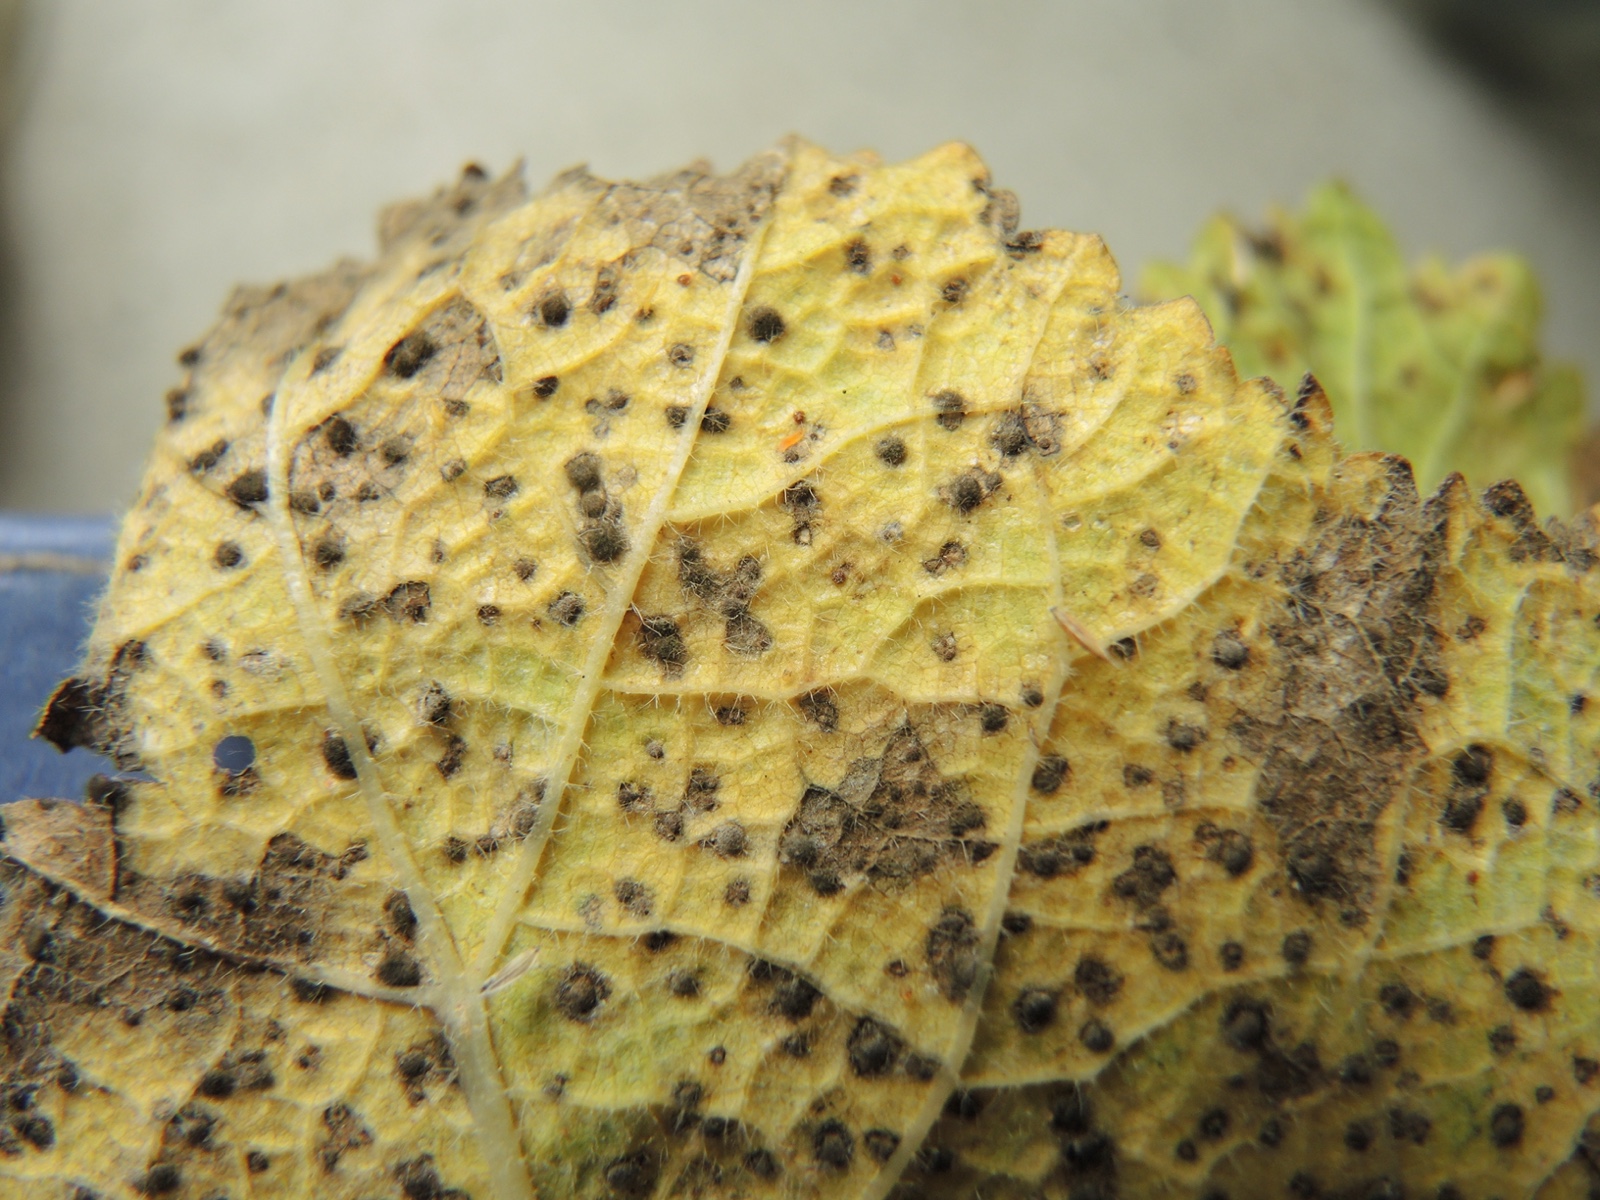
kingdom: Fungi
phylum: Basidiomycota
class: Pucciniomycetes
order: Pucciniales
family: Pucciniaceae
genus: Puccinia
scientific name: Puccinia malvacearum
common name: stokrose-tvecellerust
